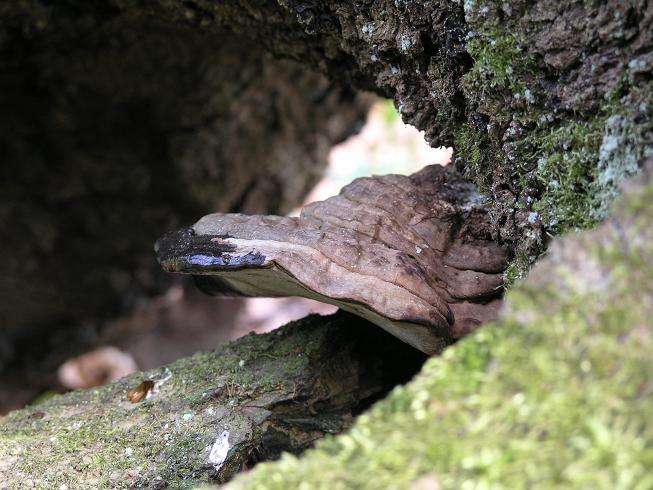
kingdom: Fungi
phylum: Basidiomycota
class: Agaricomycetes
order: Polyporales
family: Polyporaceae
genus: Ganoderma
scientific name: Ganoderma applanatum
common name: flad lakporesvamp
